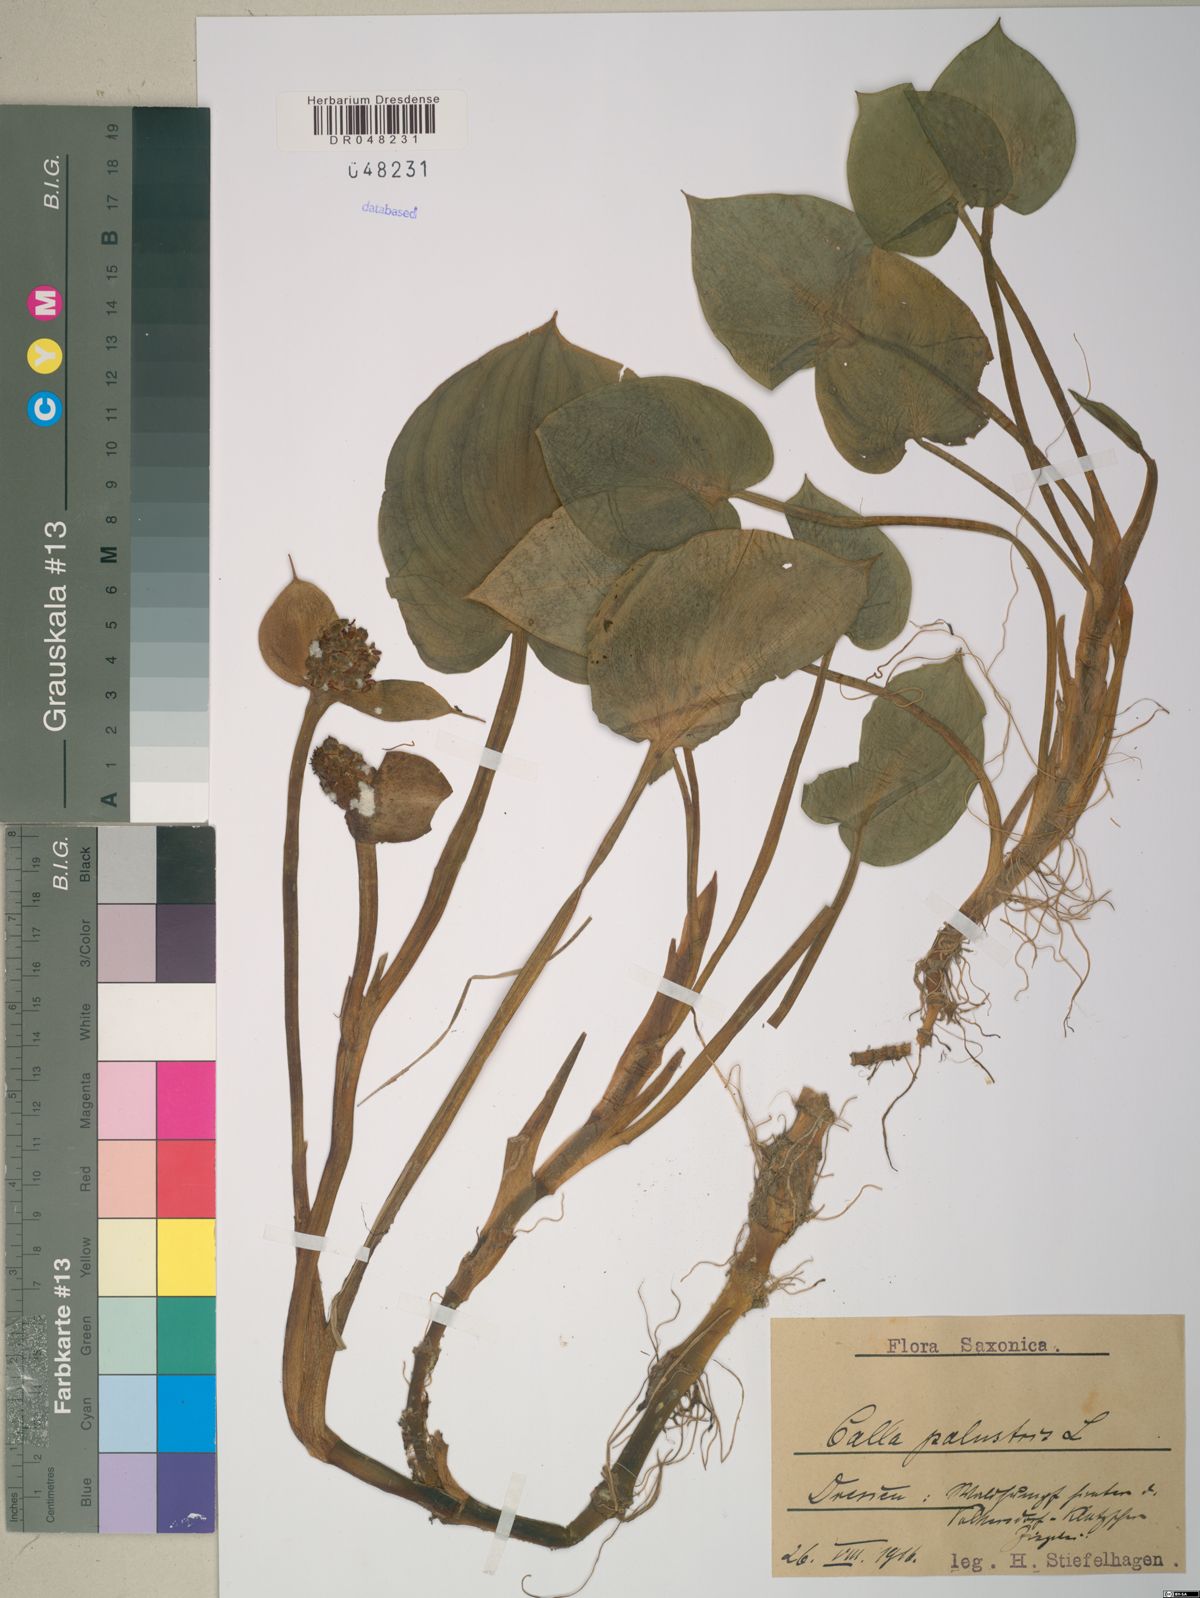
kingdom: Plantae
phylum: Tracheophyta
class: Liliopsida
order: Alismatales
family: Araceae
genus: Calla
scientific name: Calla palustris
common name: Bog arum
